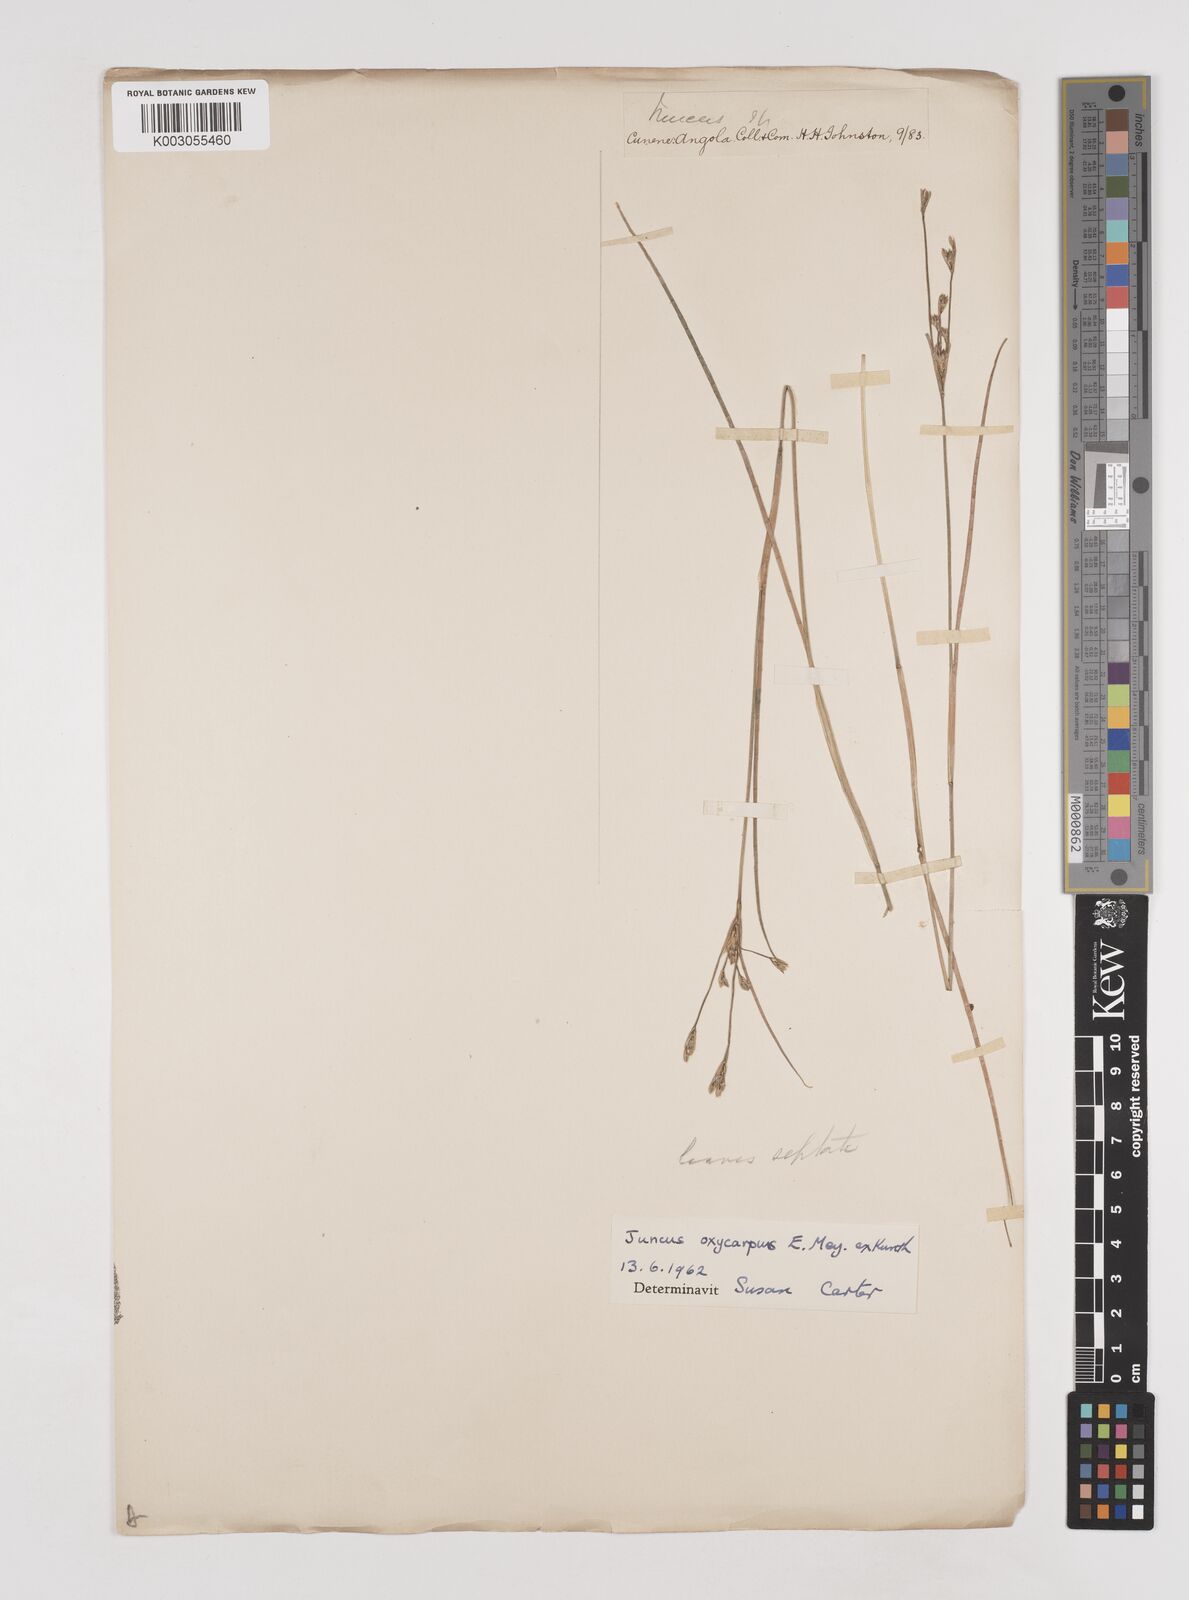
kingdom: Plantae
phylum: Tracheophyta
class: Liliopsida
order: Poales
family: Juncaceae
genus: Juncus
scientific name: Juncus oxycarpus
